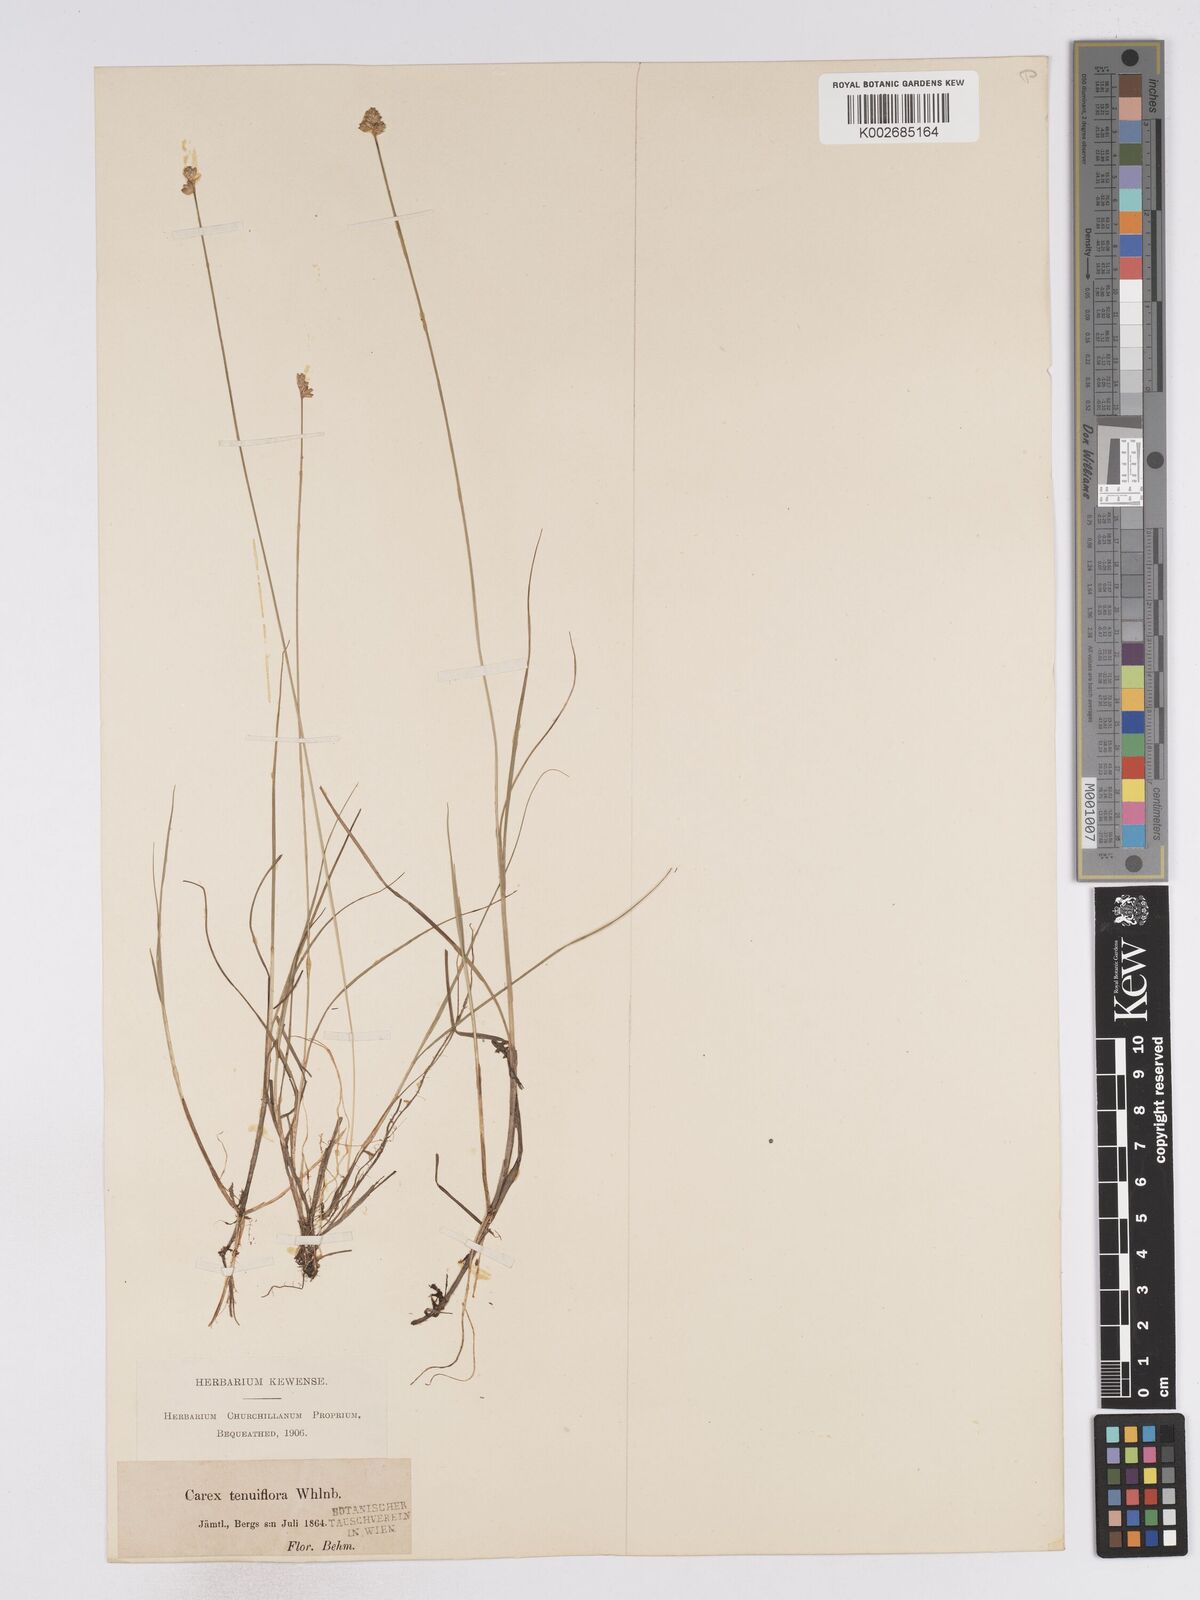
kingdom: Plantae
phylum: Tracheophyta
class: Liliopsida
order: Poales
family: Cyperaceae
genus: Carex
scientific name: Carex tenuiflora
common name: Sparse-flowered sedge
